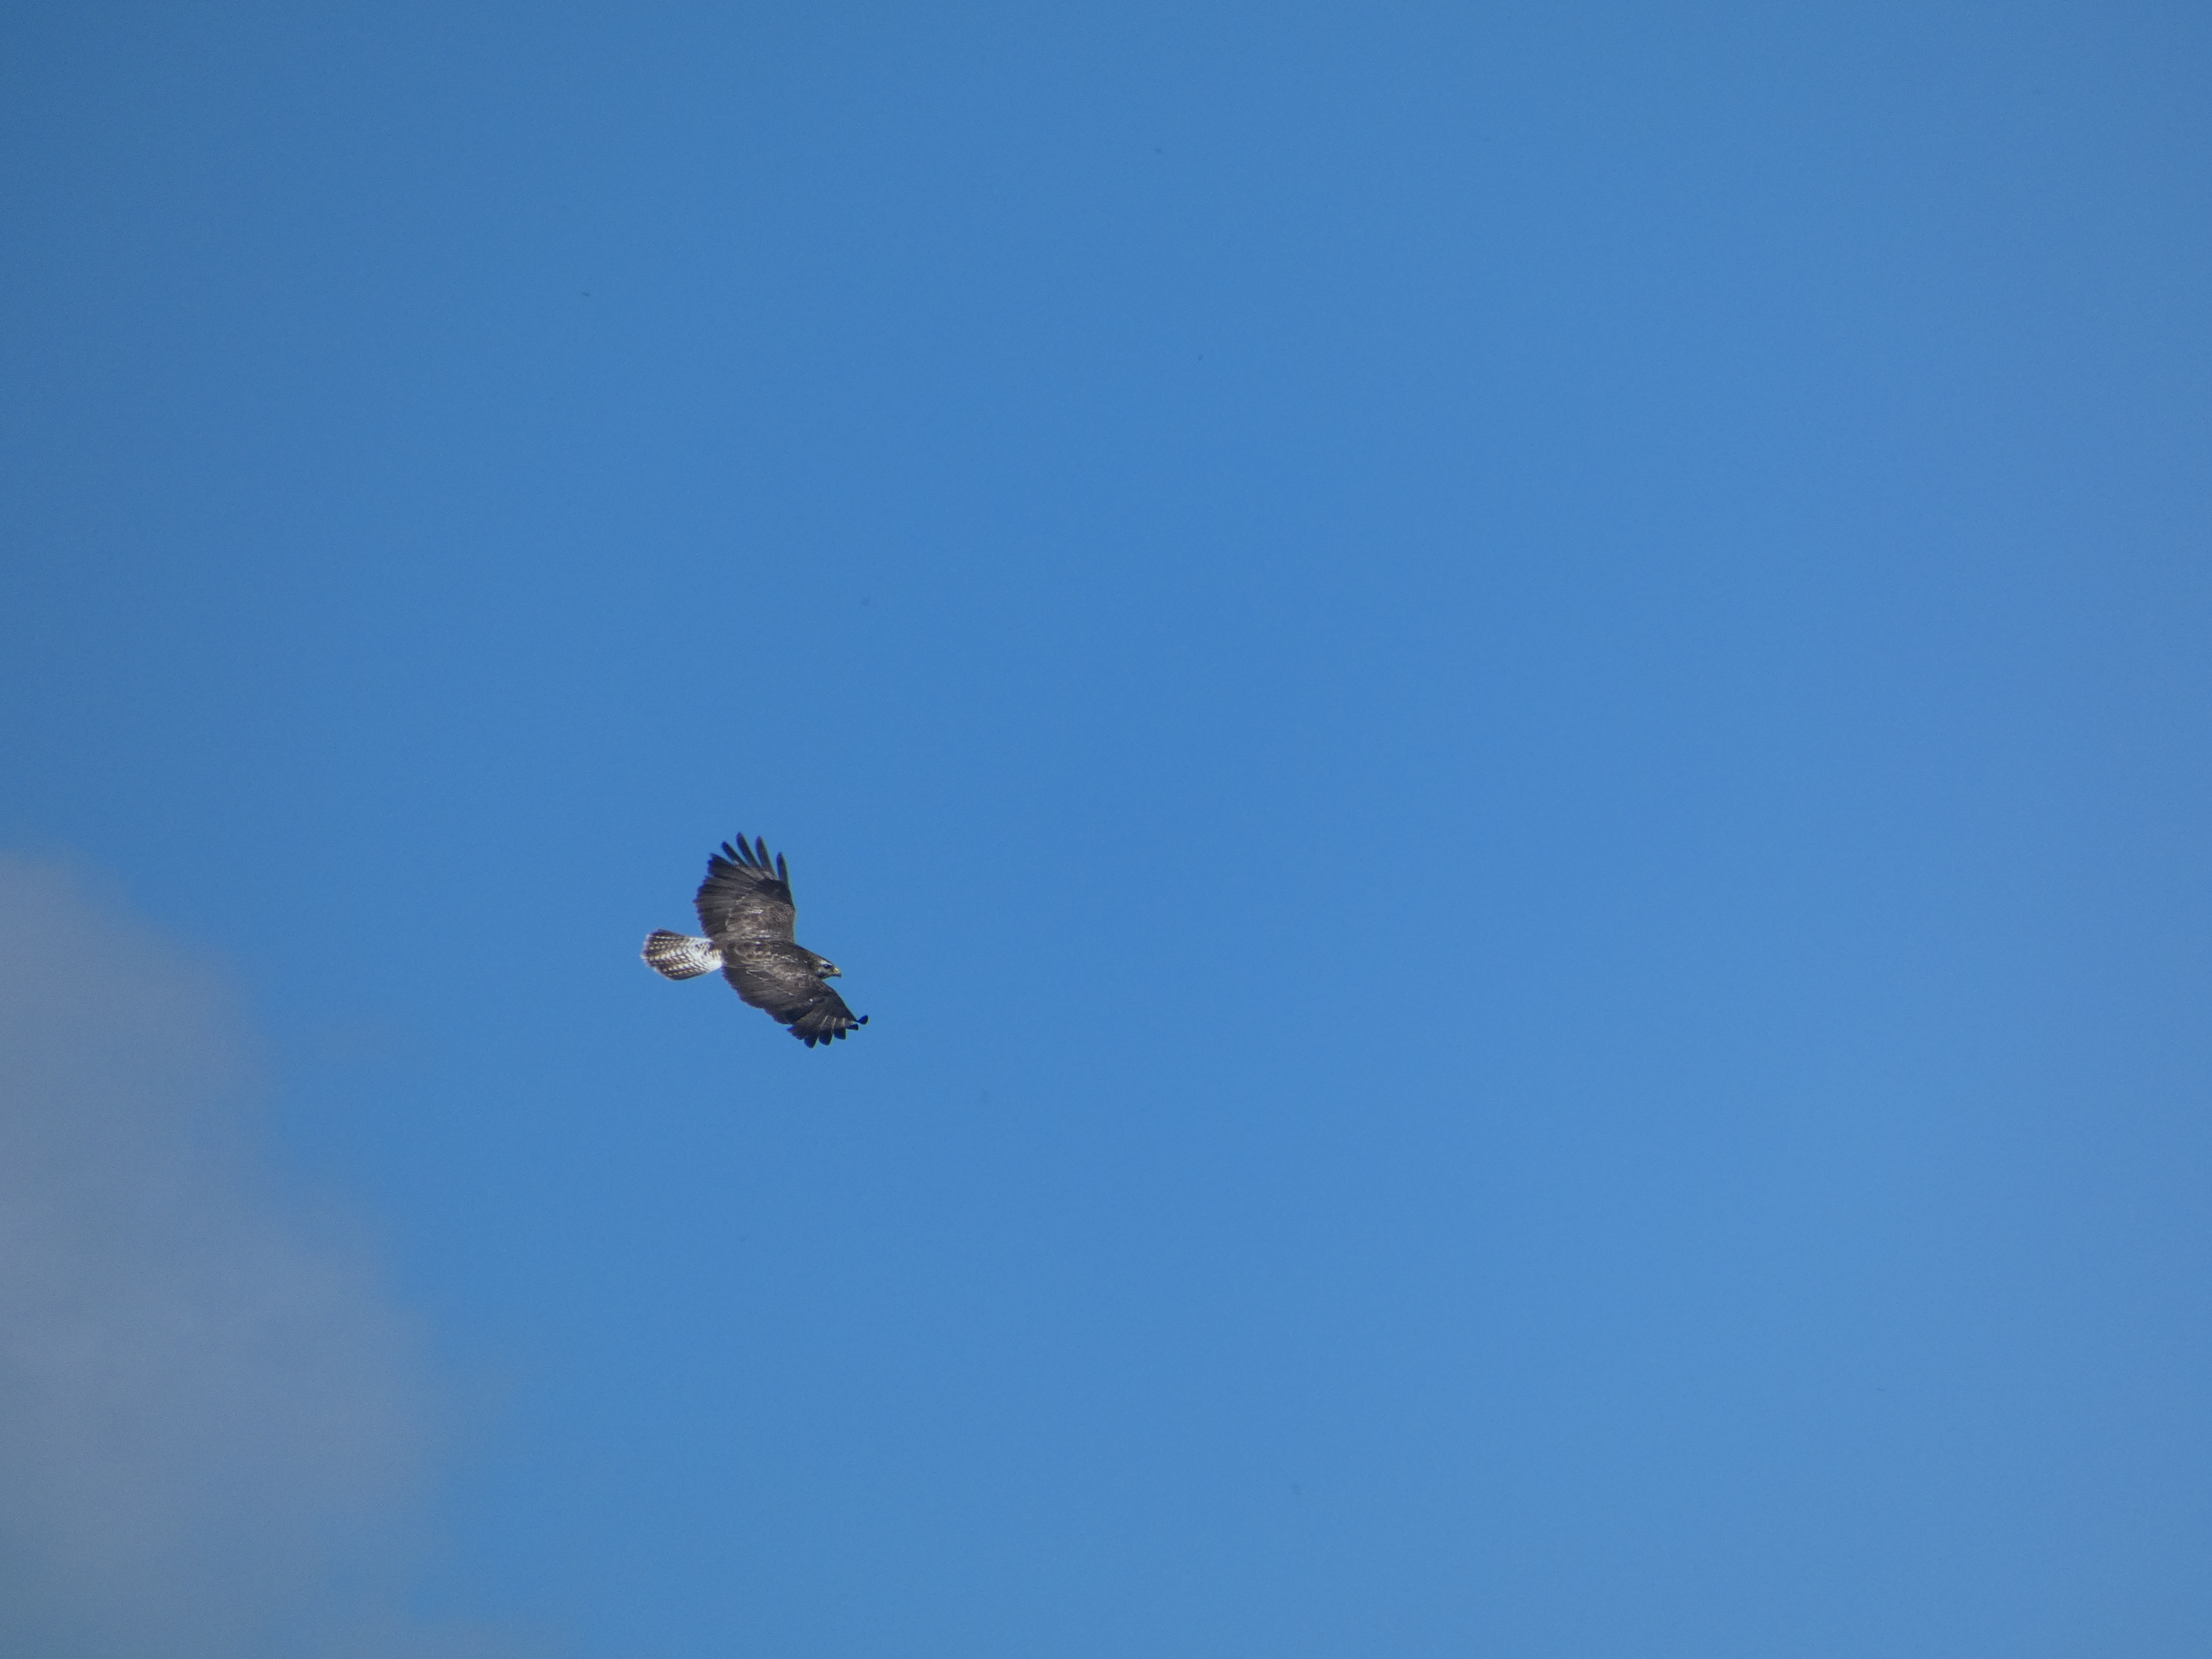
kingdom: Animalia
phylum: Chordata
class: Aves
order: Accipitriformes
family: Accipitridae
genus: Buteo
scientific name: Buteo buteo
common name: Musvåge
